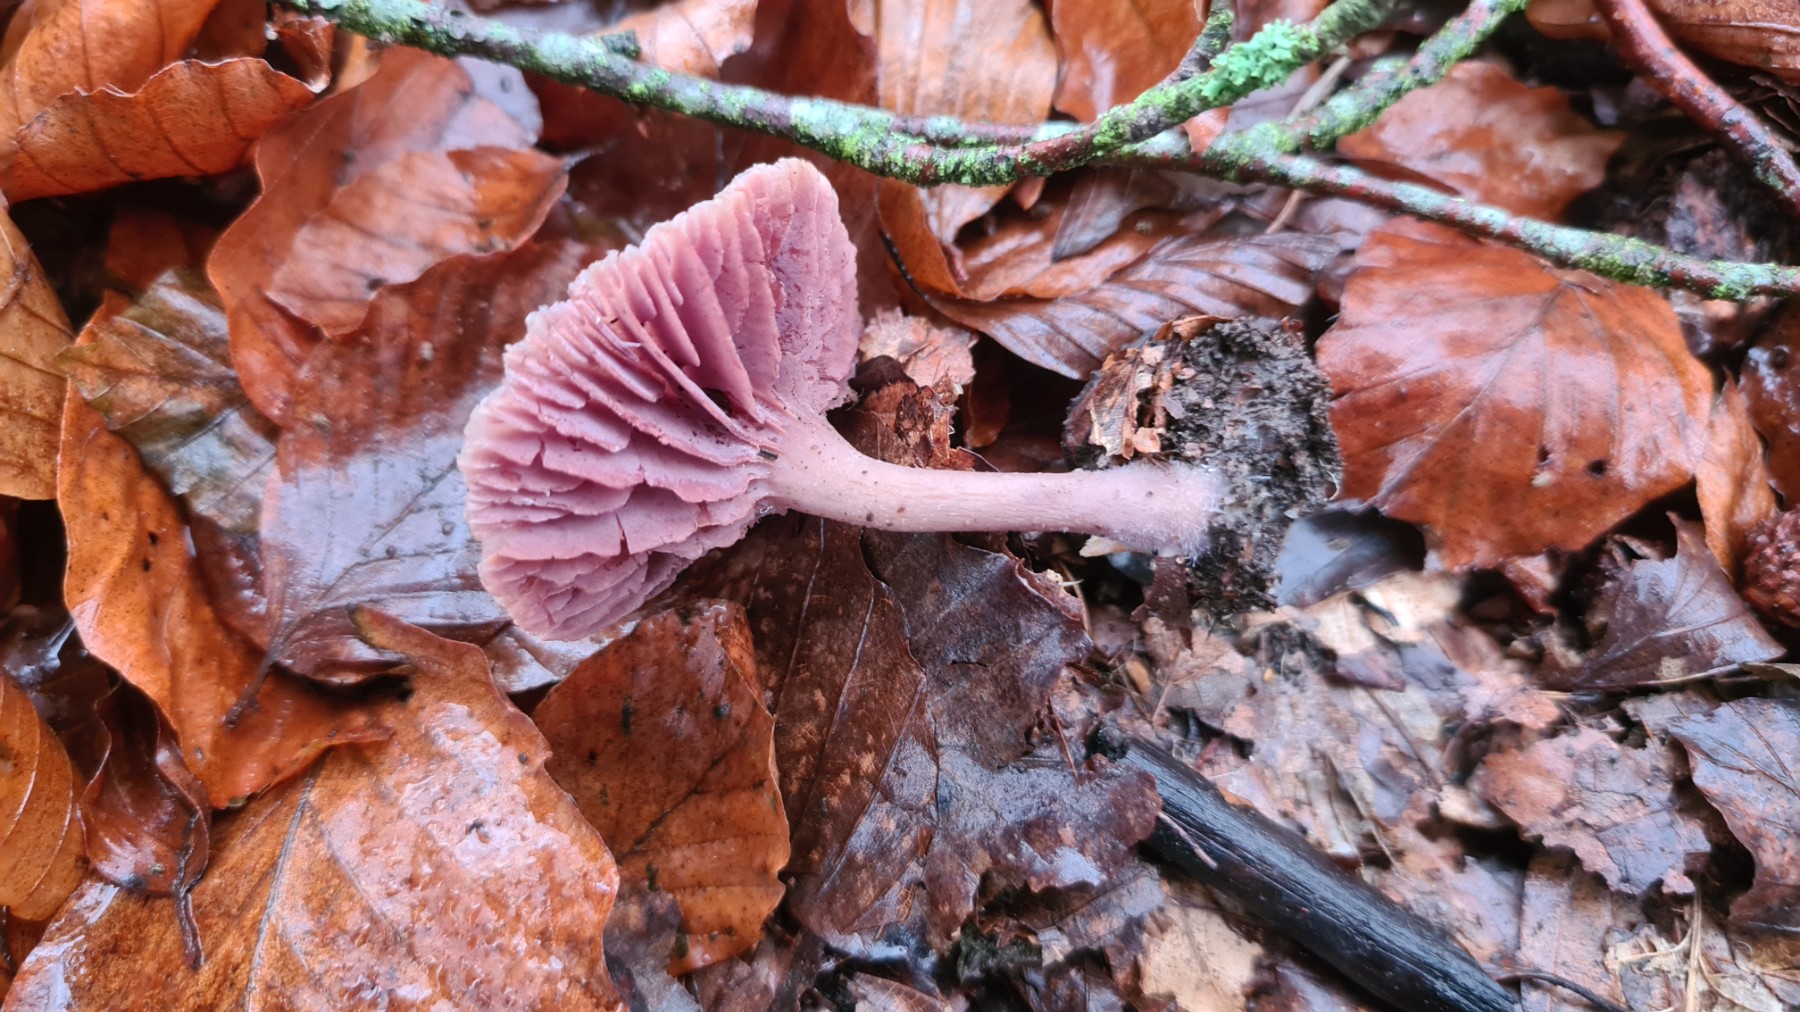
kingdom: Fungi
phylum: Basidiomycota
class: Agaricomycetes
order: Agaricales
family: Hydnangiaceae
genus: Laccaria
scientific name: Laccaria amethystina
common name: violet ametysthat
